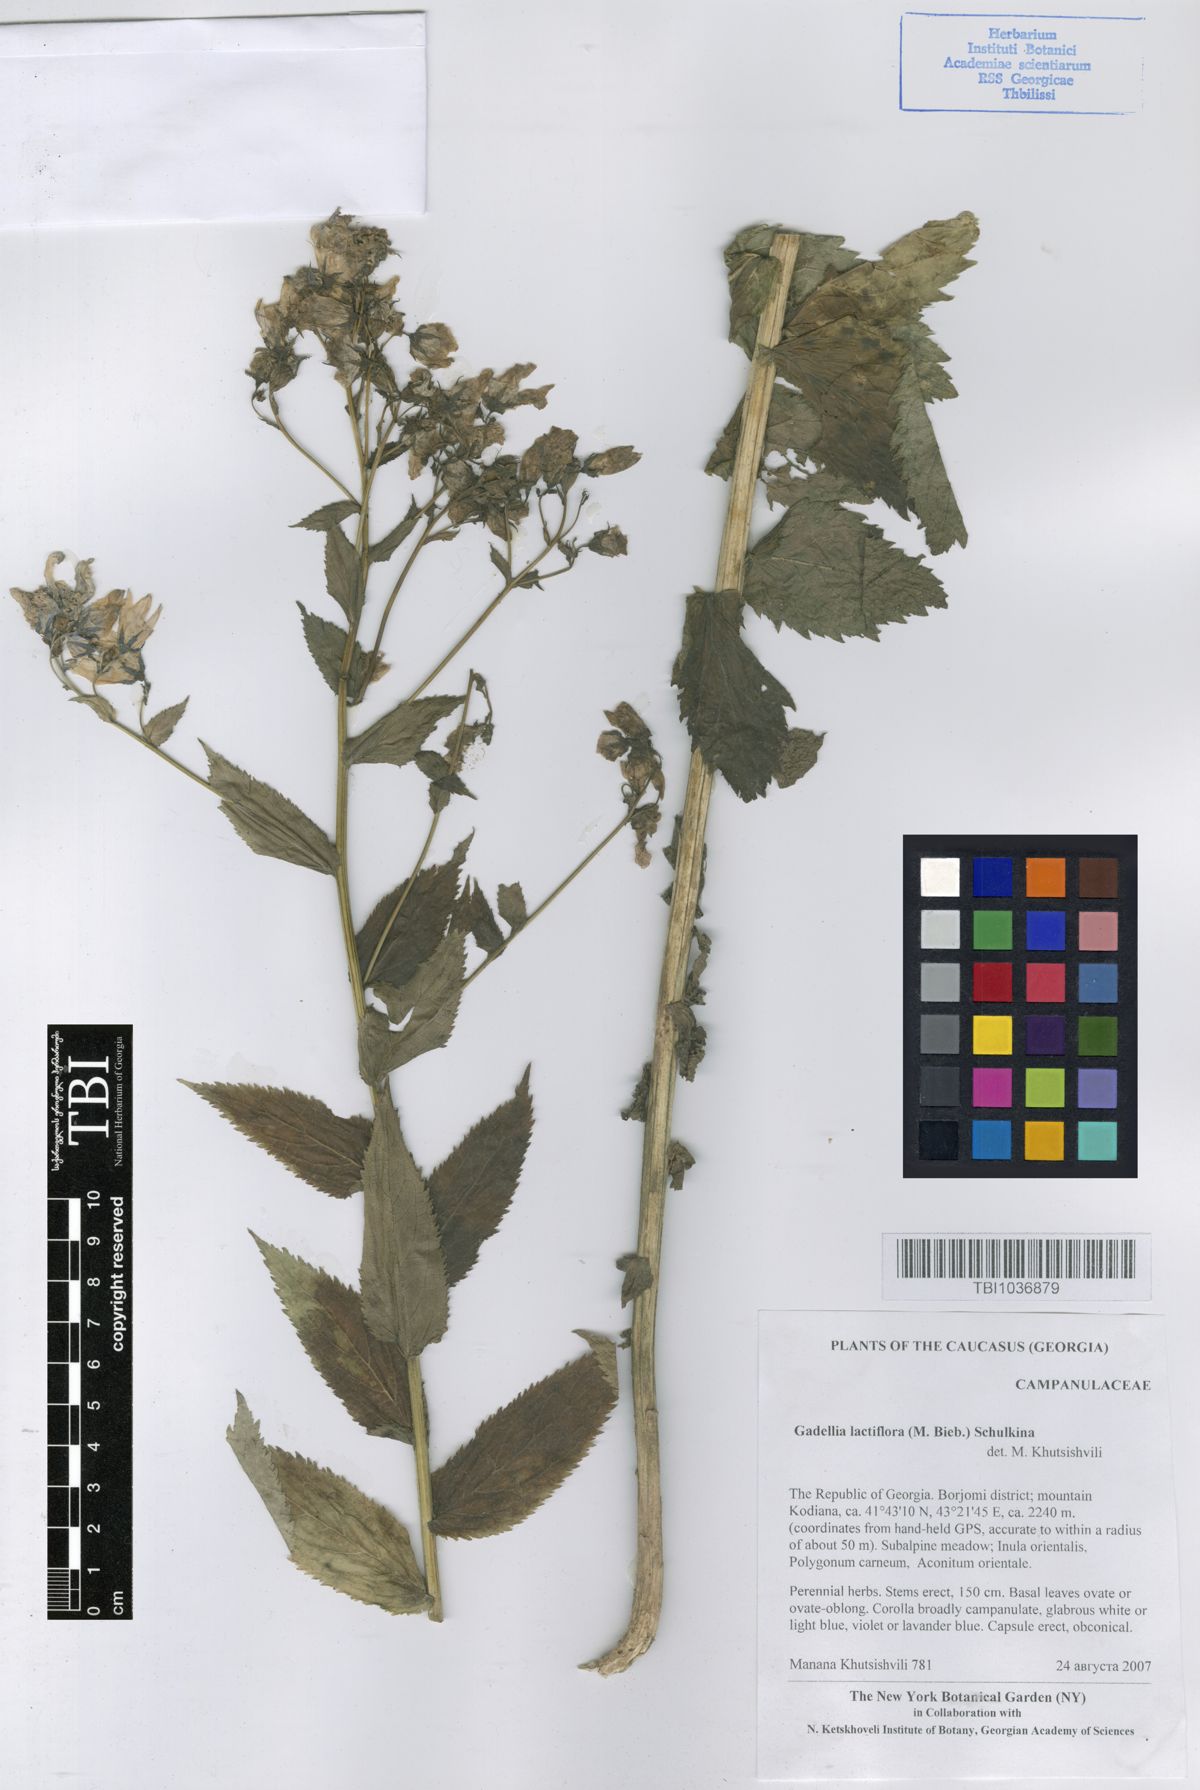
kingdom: Plantae
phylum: Tracheophyta
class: Magnoliopsida
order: Asterales
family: Campanulaceae
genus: Campanula
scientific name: Campanula lactiflora
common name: Milky bellflower
